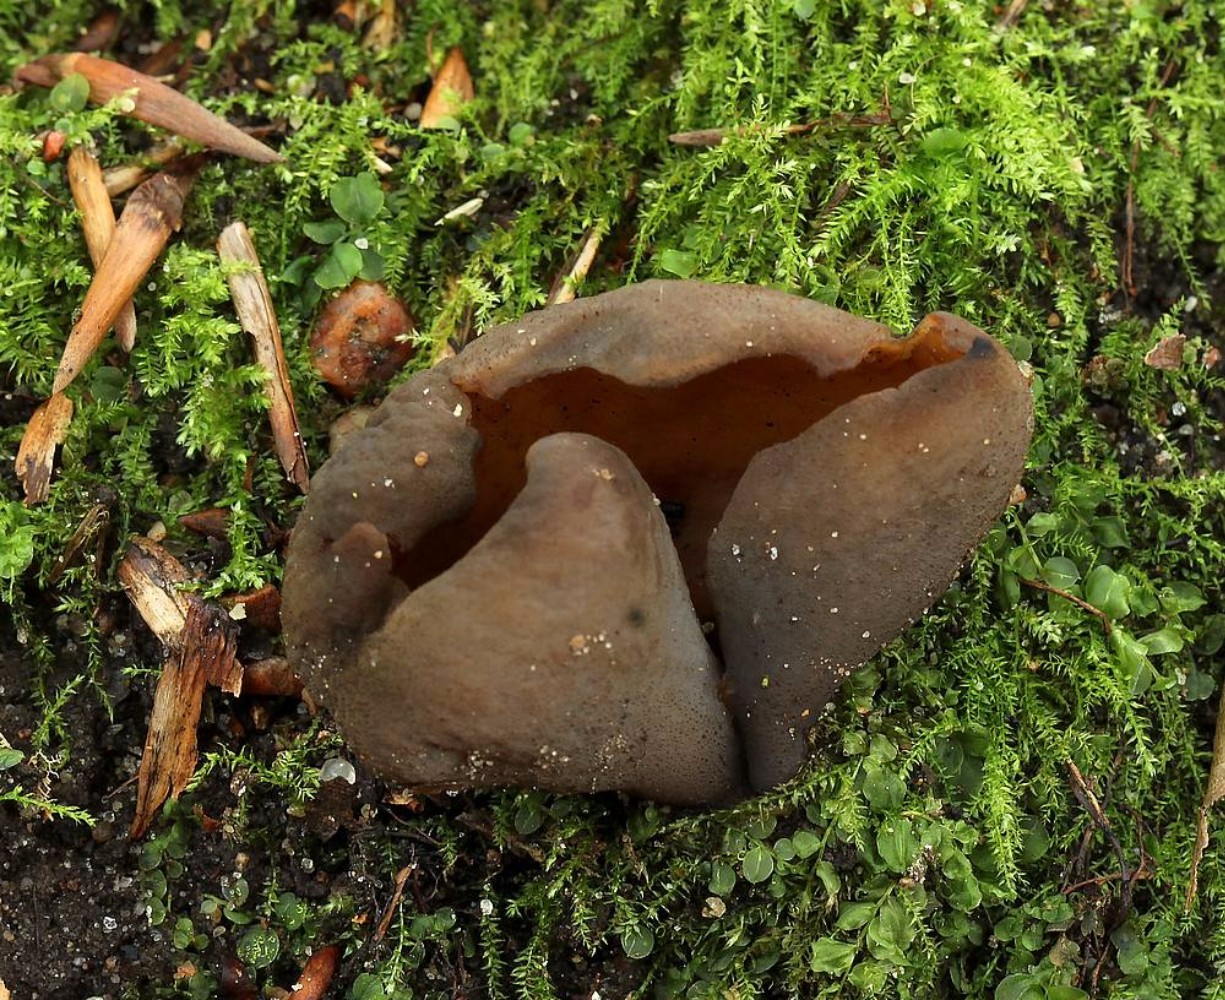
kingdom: Fungi
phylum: Ascomycota
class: Pezizomycetes
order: Pezizales
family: Otideaceae
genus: Otidea
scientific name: Otidea bufonia
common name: brun ørebæger
